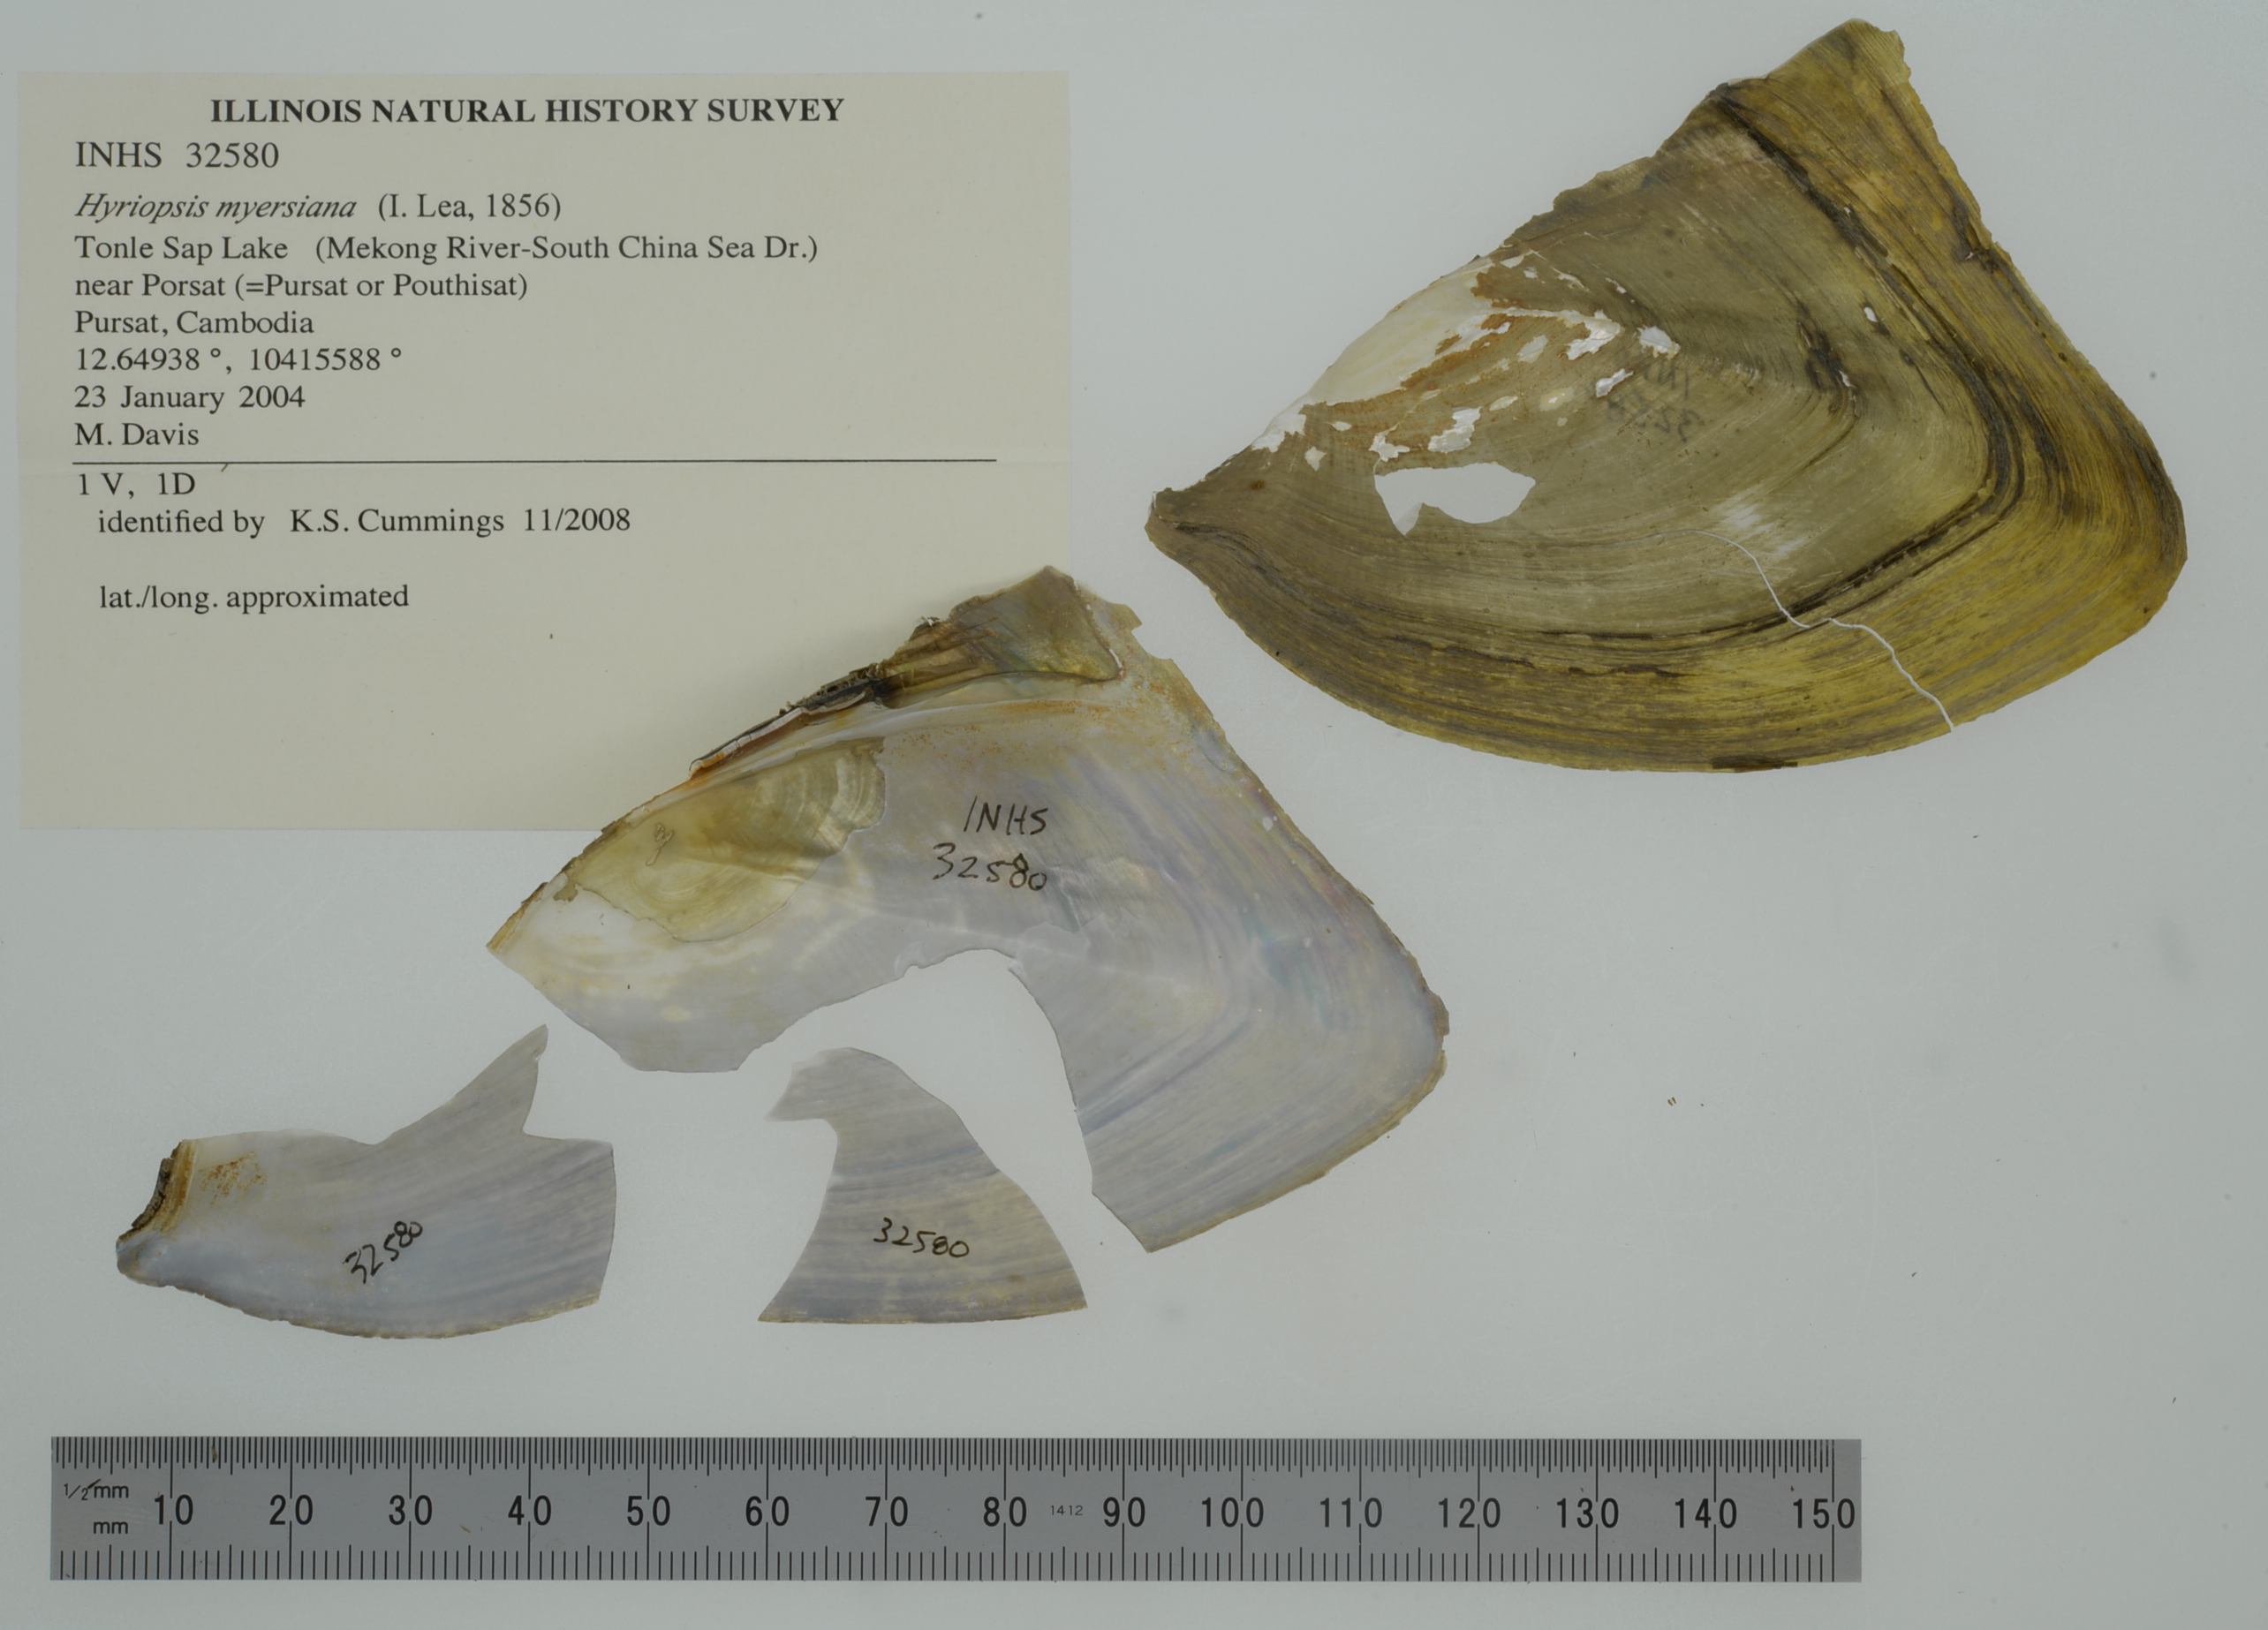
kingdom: Animalia
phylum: Mollusca
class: Bivalvia
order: Unionida
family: Unionidae
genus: Hyriopsis
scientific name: Hyriopsis myersiana
